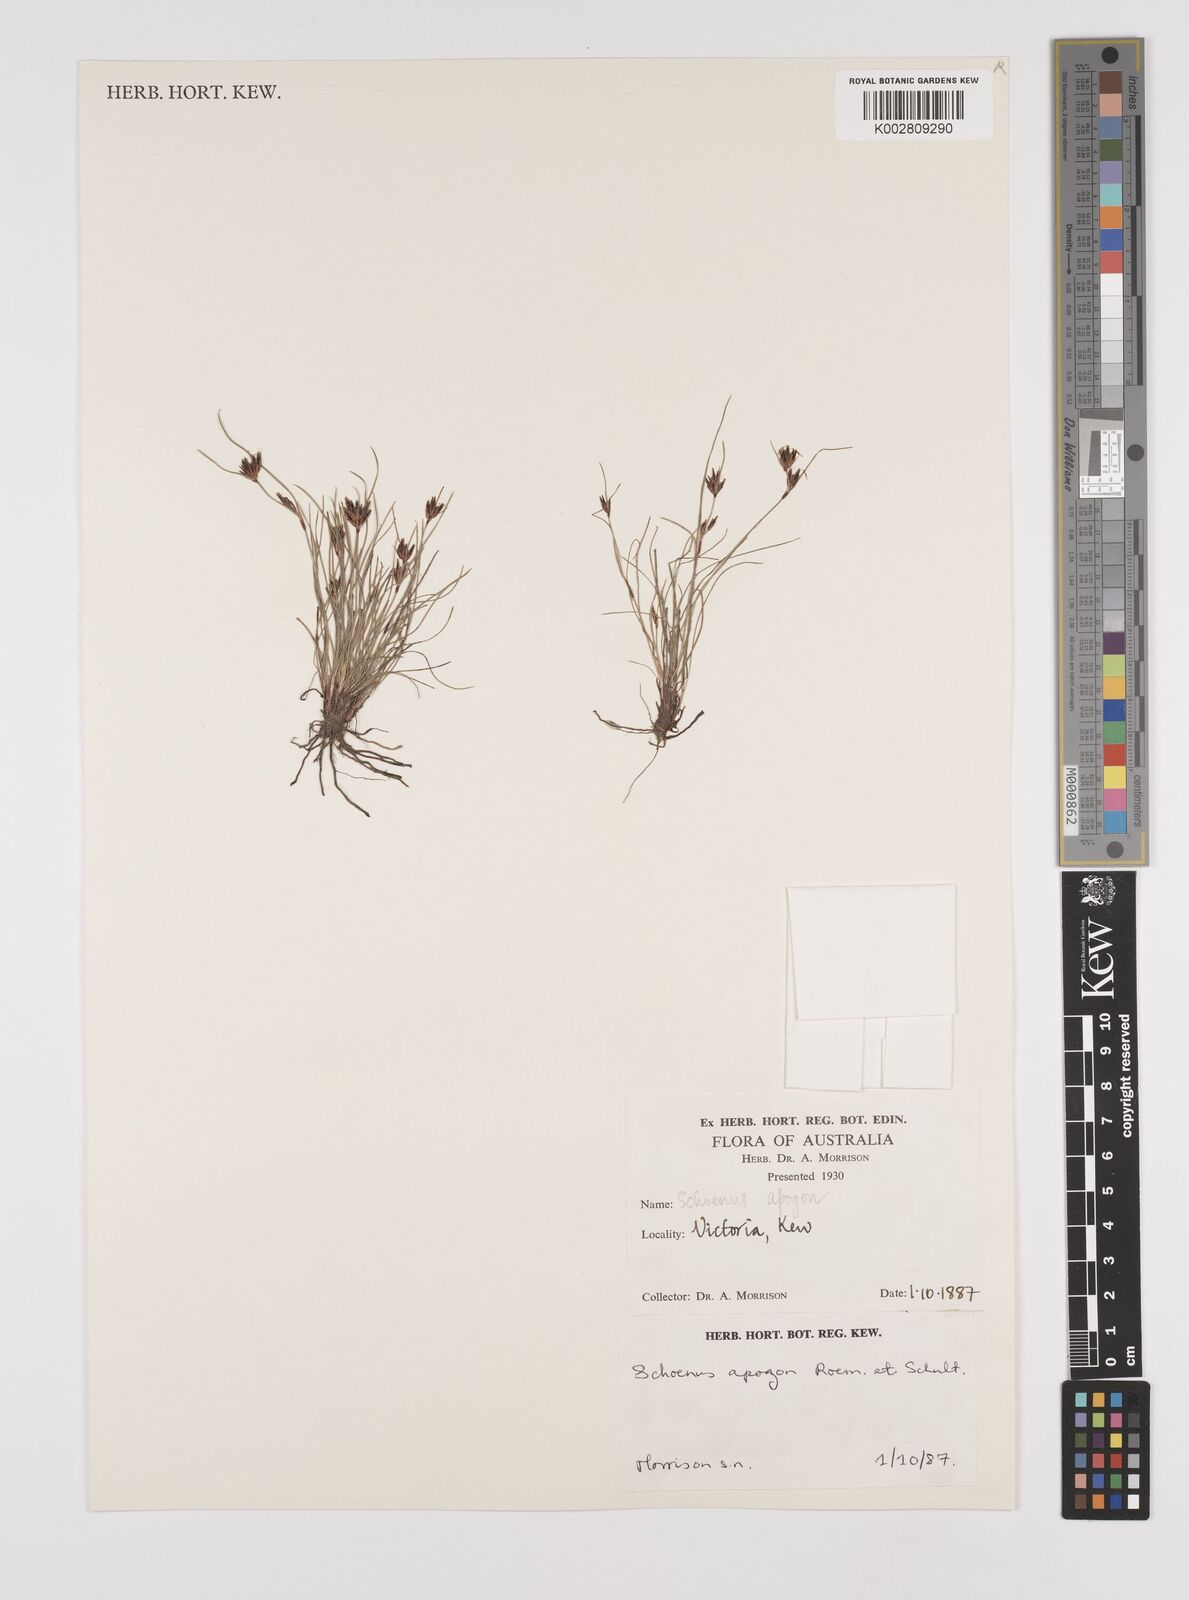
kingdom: Plantae
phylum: Tracheophyta
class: Liliopsida
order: Poales
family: Cyperaceae
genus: Schoenus
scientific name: Schoenus apogon
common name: Smooth bogrush
